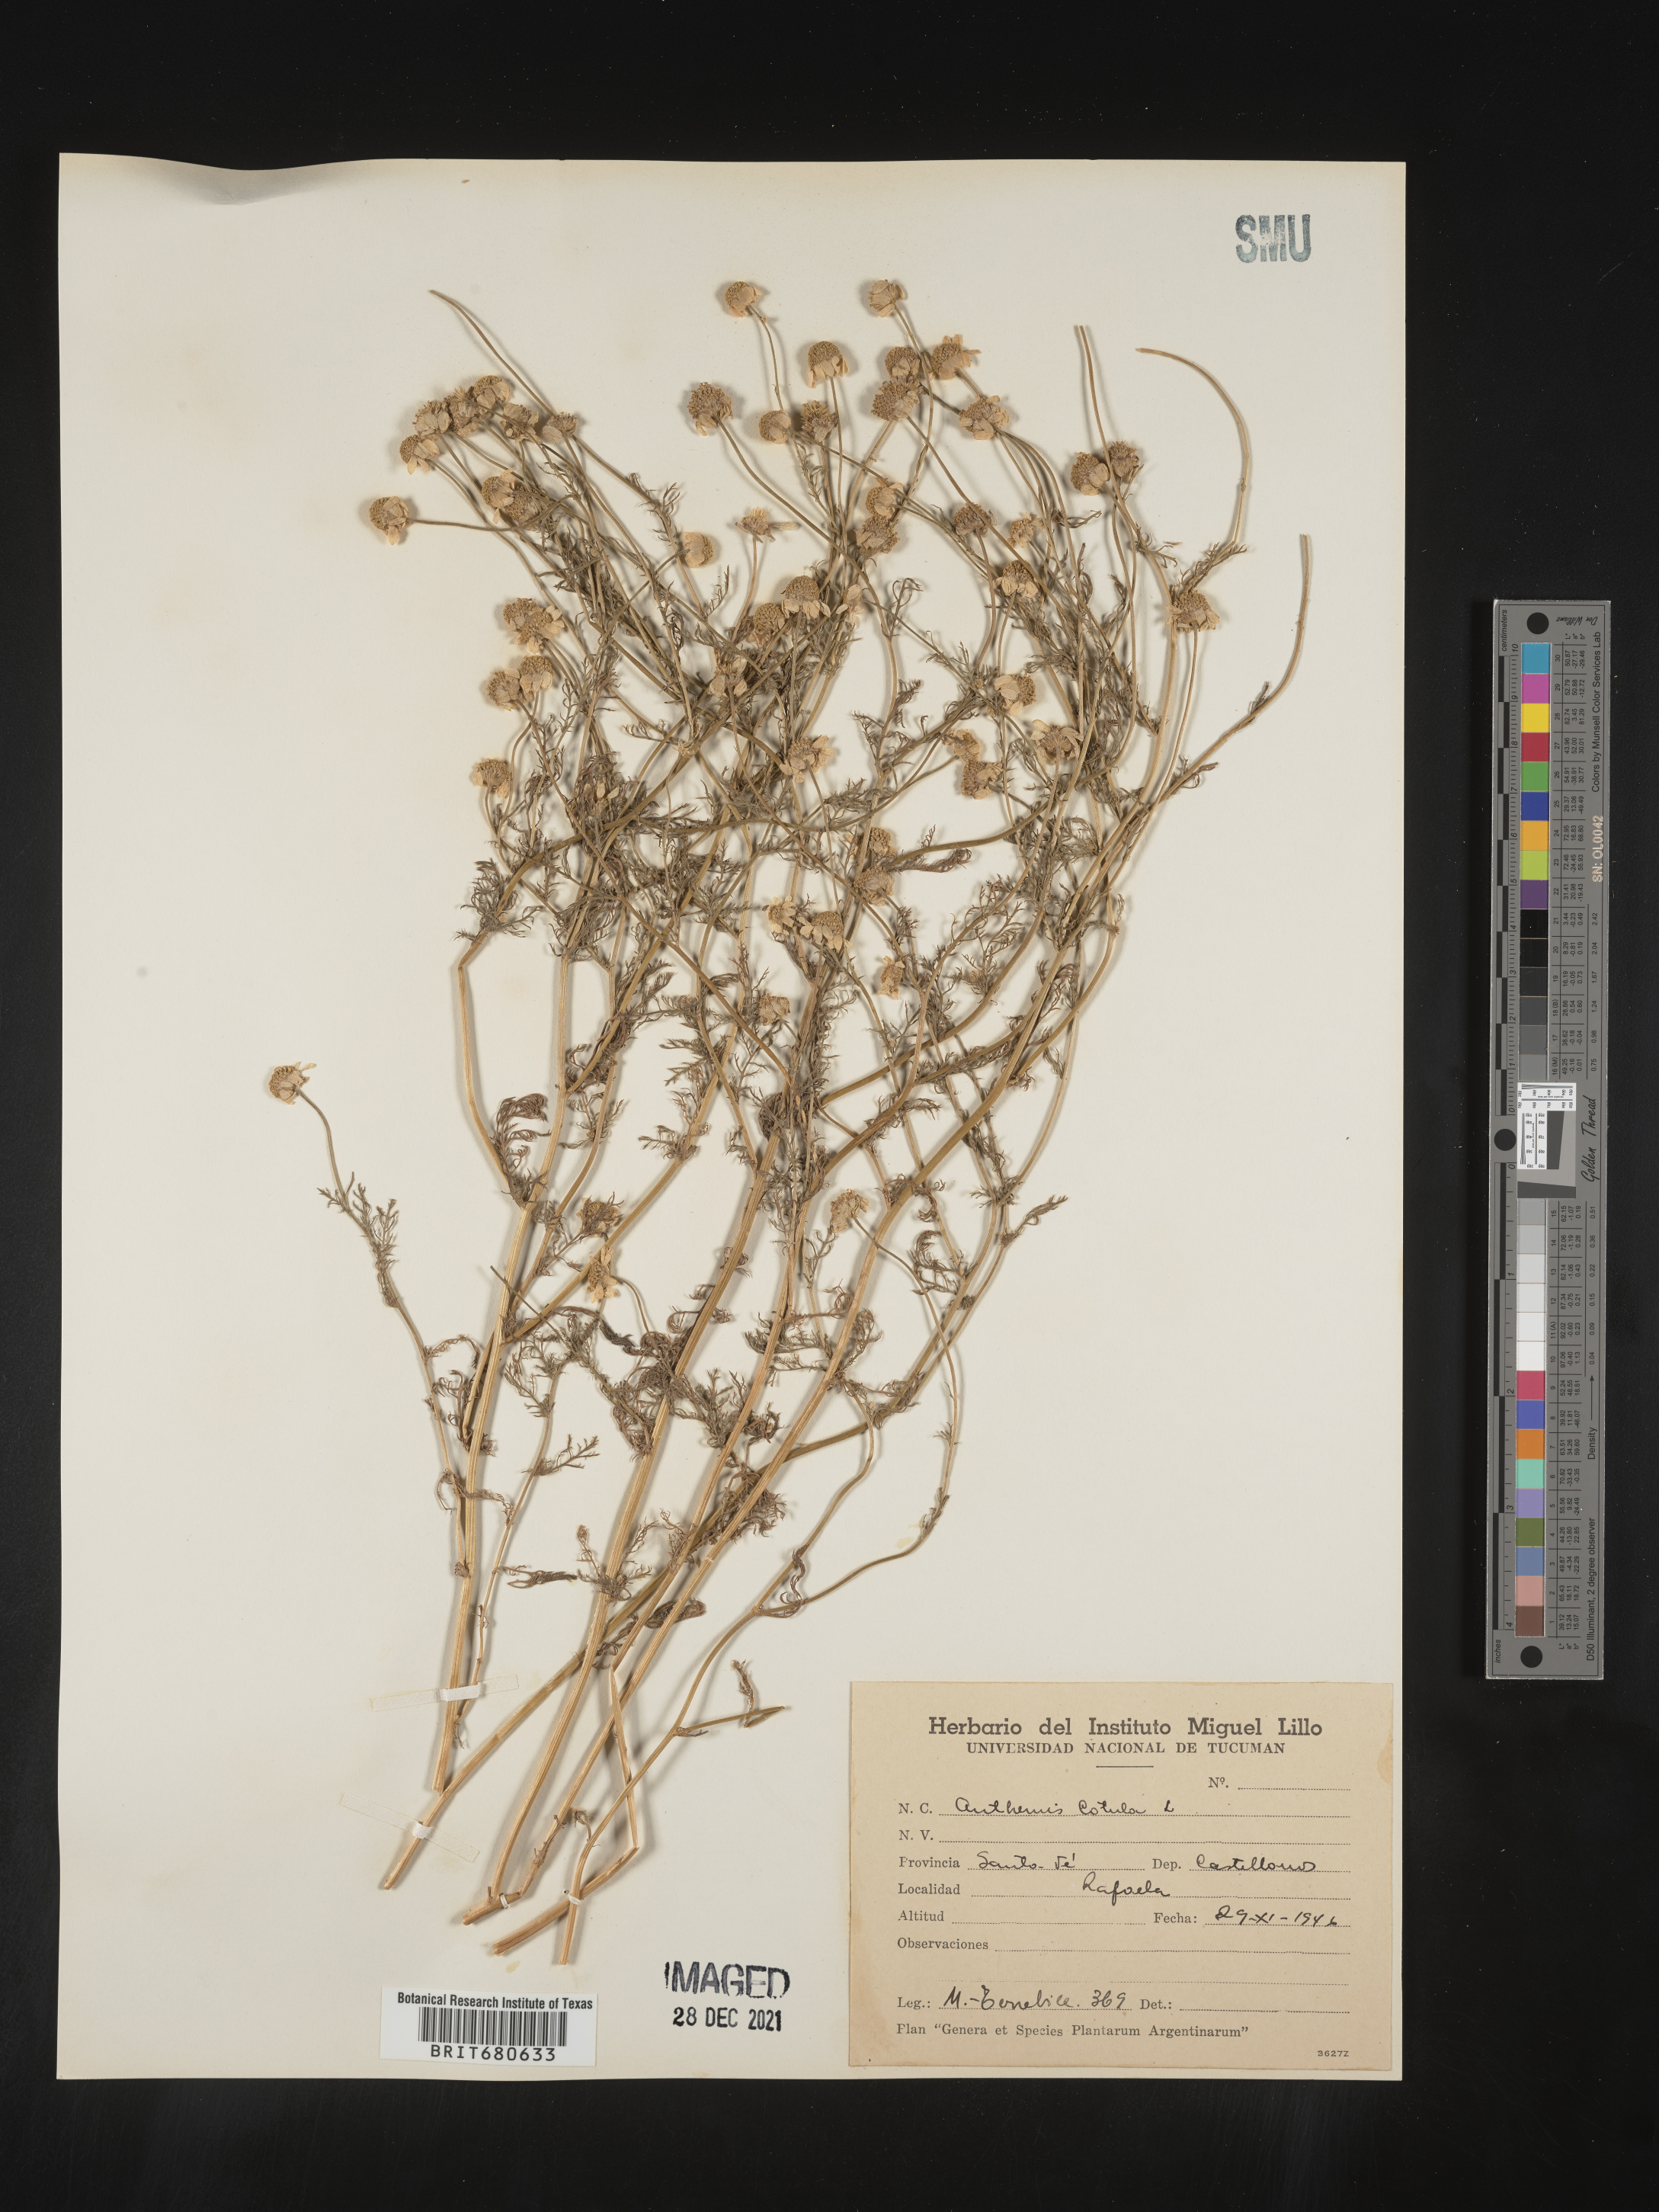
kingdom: Plantae
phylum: Tracheophyta
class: Magnoliopsida
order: Asterales
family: Asteraceae
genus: Anthemis
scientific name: Anthemis
